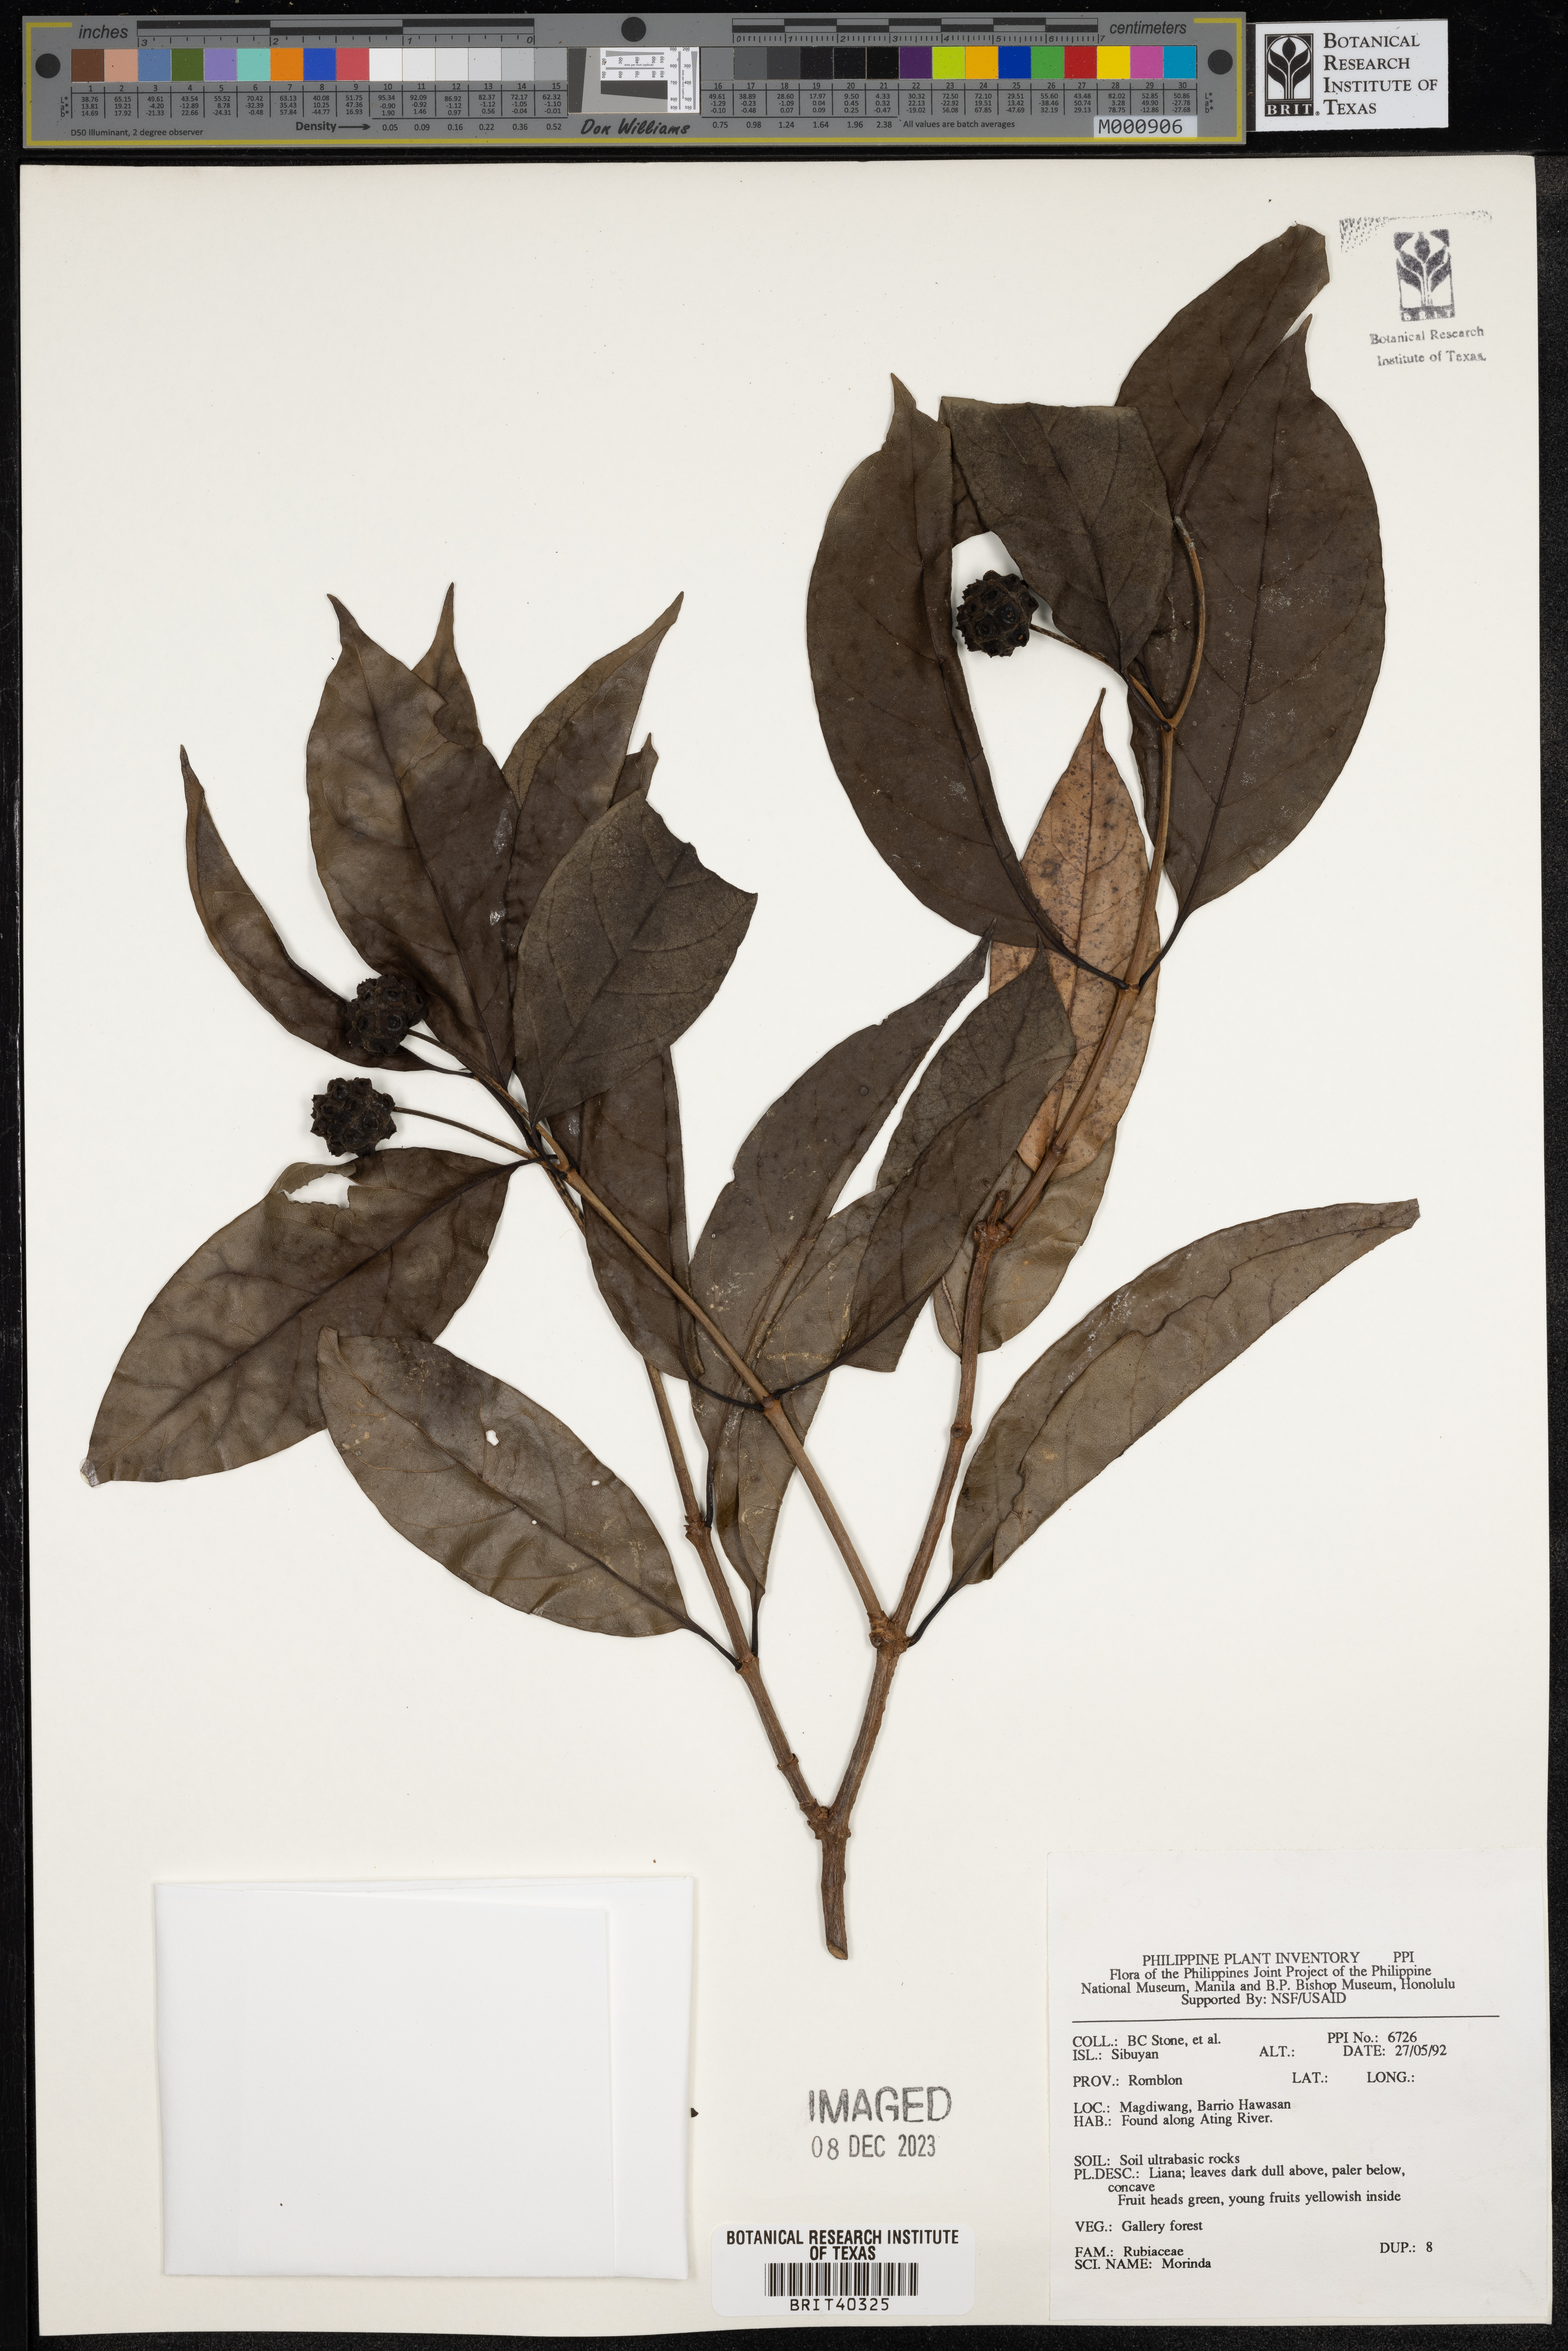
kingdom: Plantae
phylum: Tracheophyta
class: Magnoliopsida
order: Gentianales
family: Rubiaceae
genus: Morinda
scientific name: Morinda
